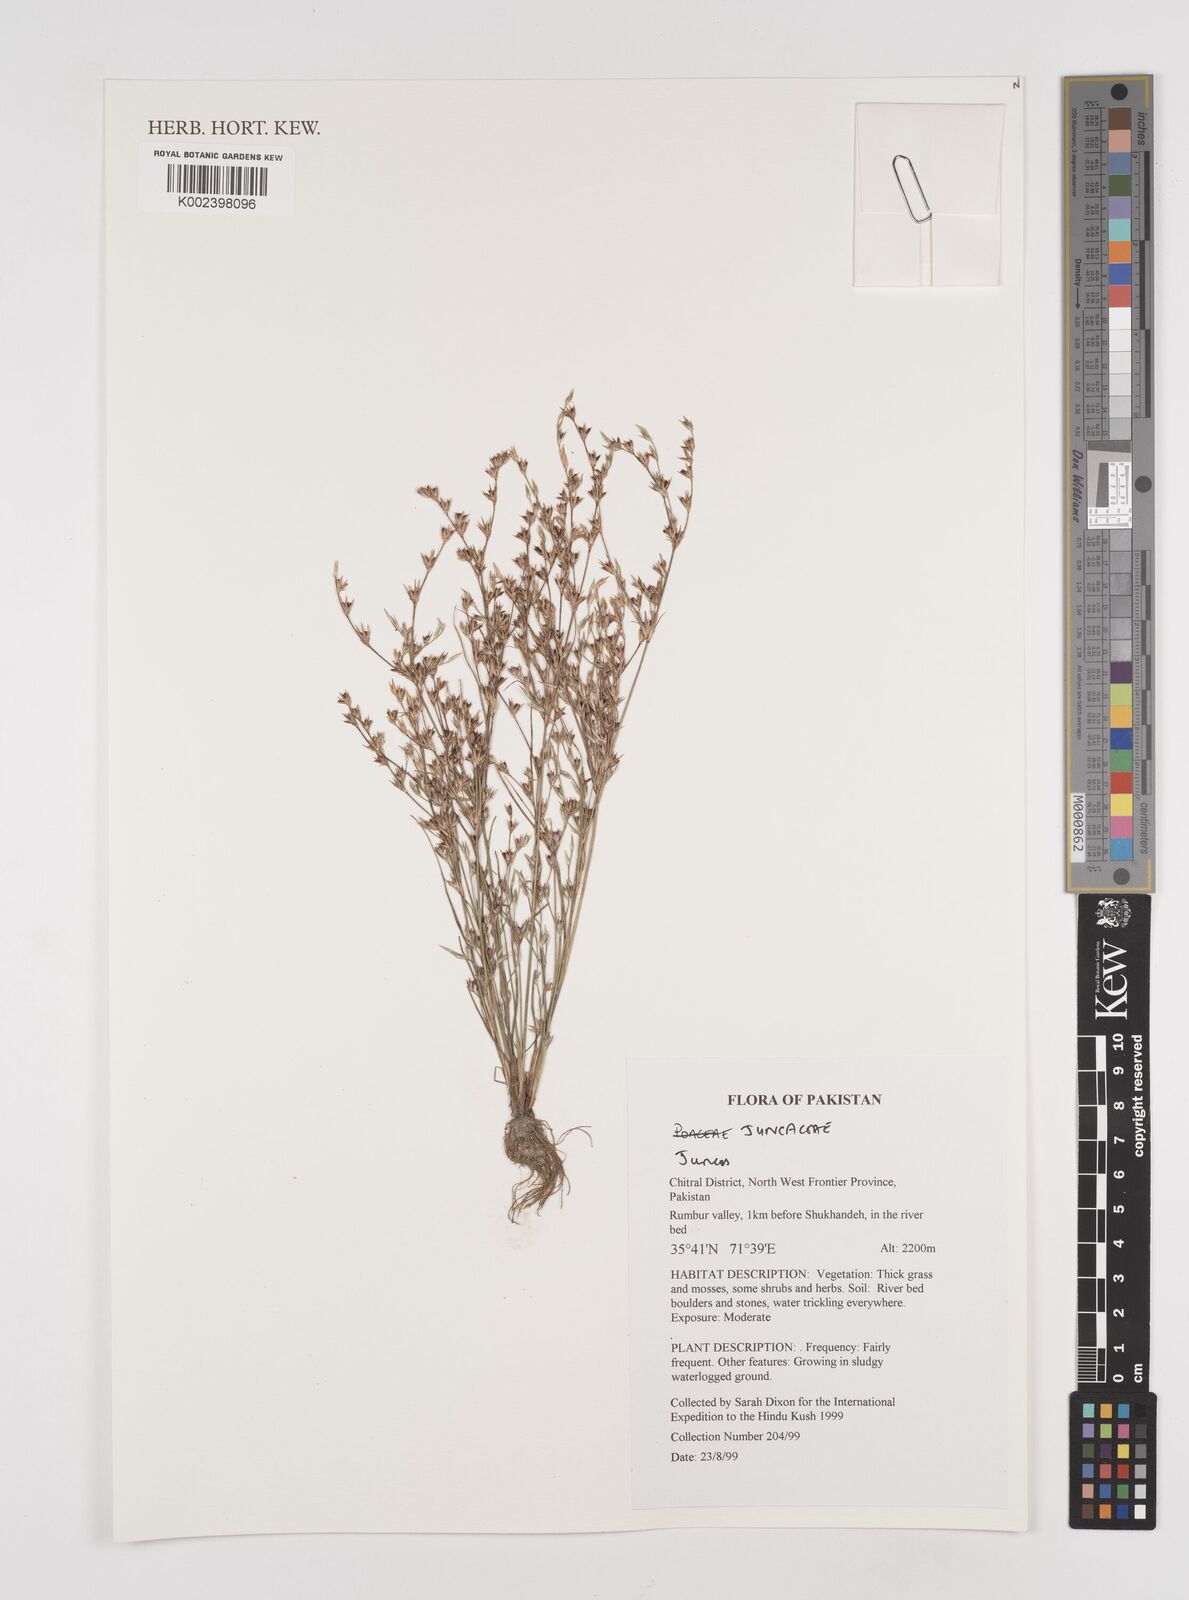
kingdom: Plantae
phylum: Tracheophyta
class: Liliopsida
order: Poales
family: Juncaceae
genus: Juncus
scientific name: Juncus
